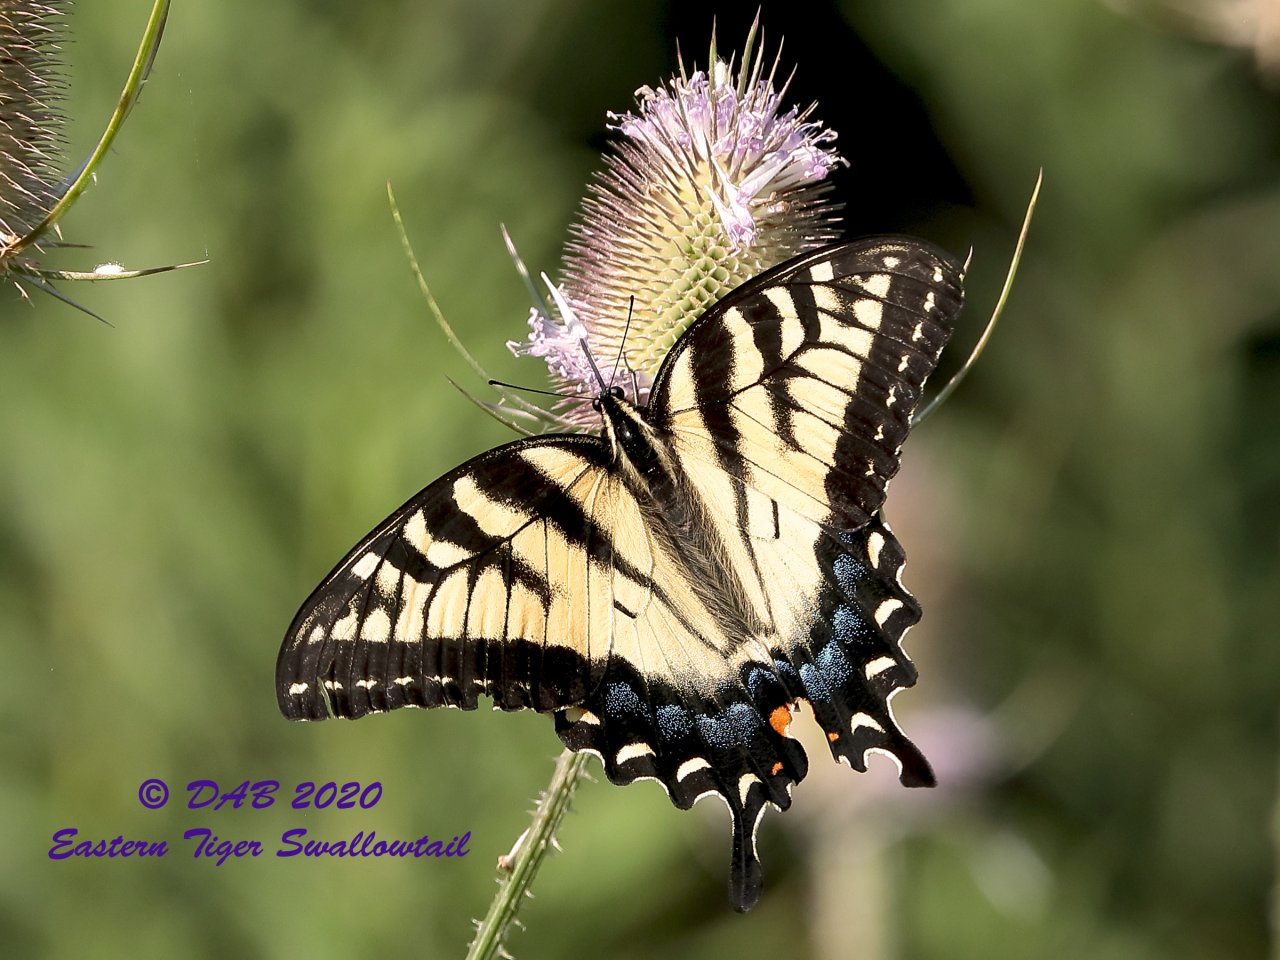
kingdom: Animalia
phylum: Arthropoda
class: Insecta
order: Lepidoptera
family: Papilionidae
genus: Papilio
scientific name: Papilio
